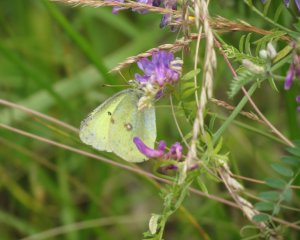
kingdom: Animalia
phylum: Arthropoda
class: Insecta
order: Lepidoptera
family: Pieridae
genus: Colias
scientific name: Colias philodice
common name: Clouded Sulphur
